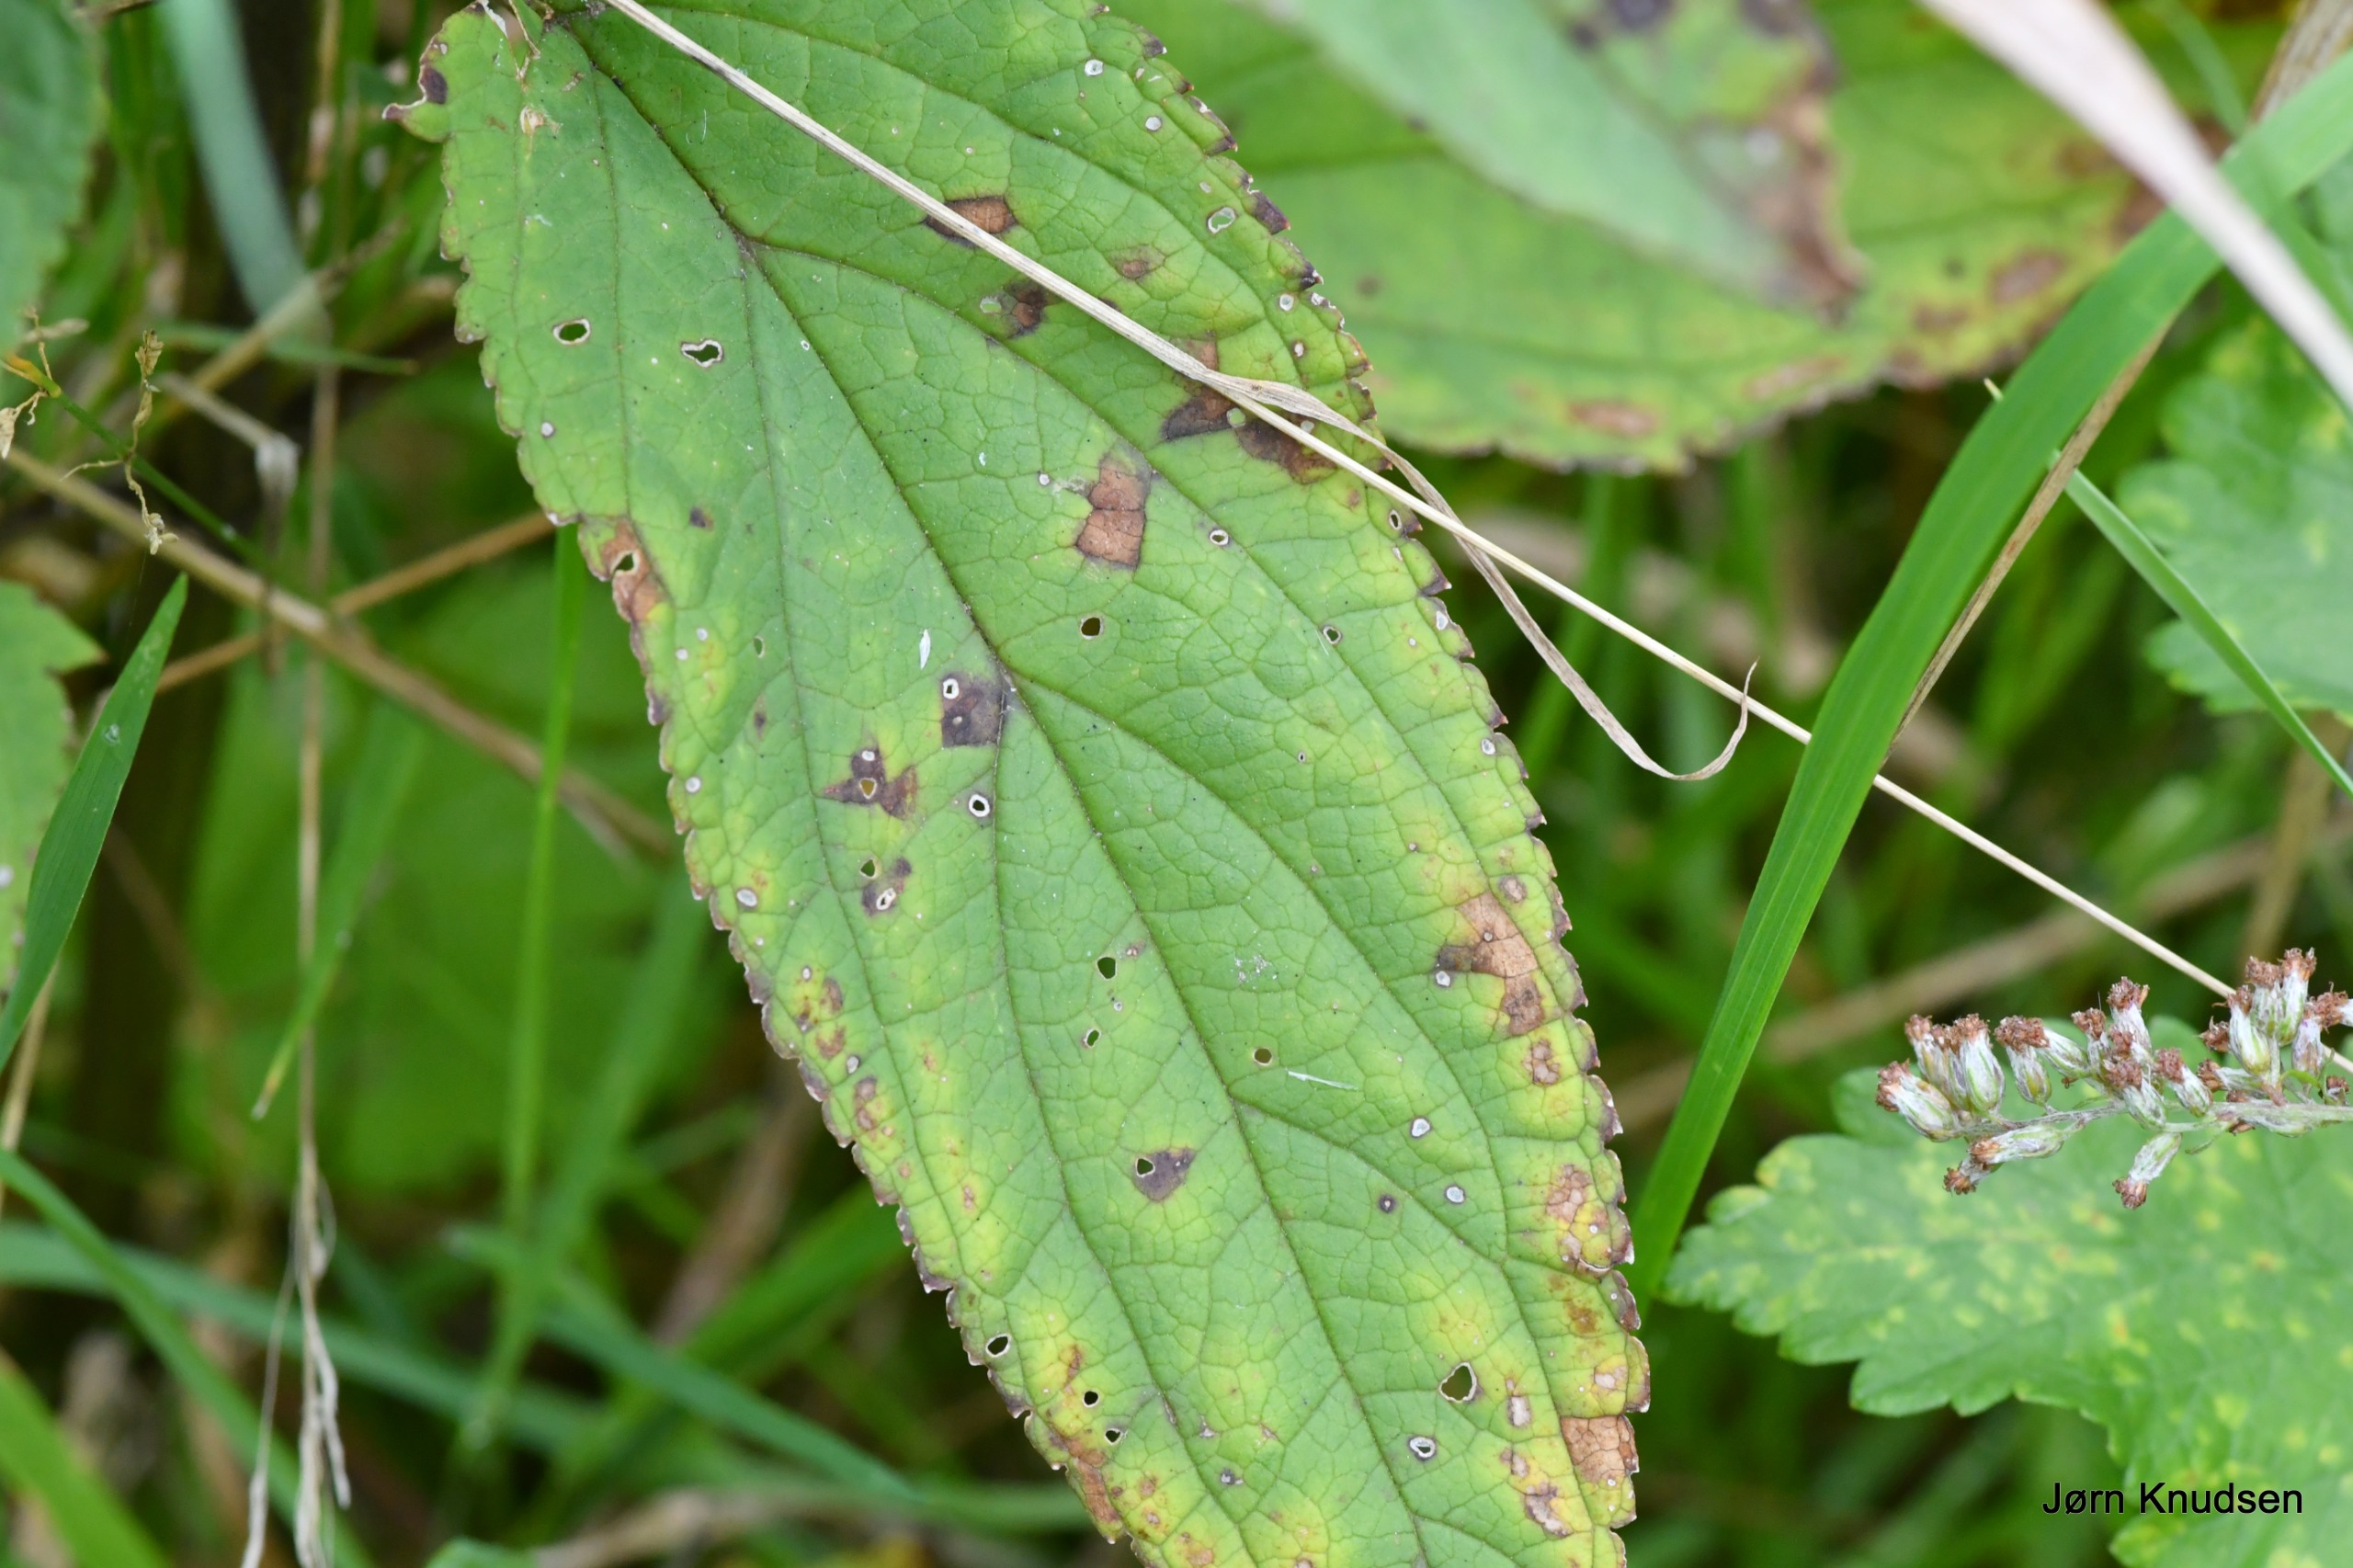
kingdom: Plantae
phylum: Tracheophyta
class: Magnoliopsida
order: Lamiales
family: Scrophulariaceae
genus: Scrophularia
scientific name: Scrophularia nodosa
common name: Knoldet brunrod
